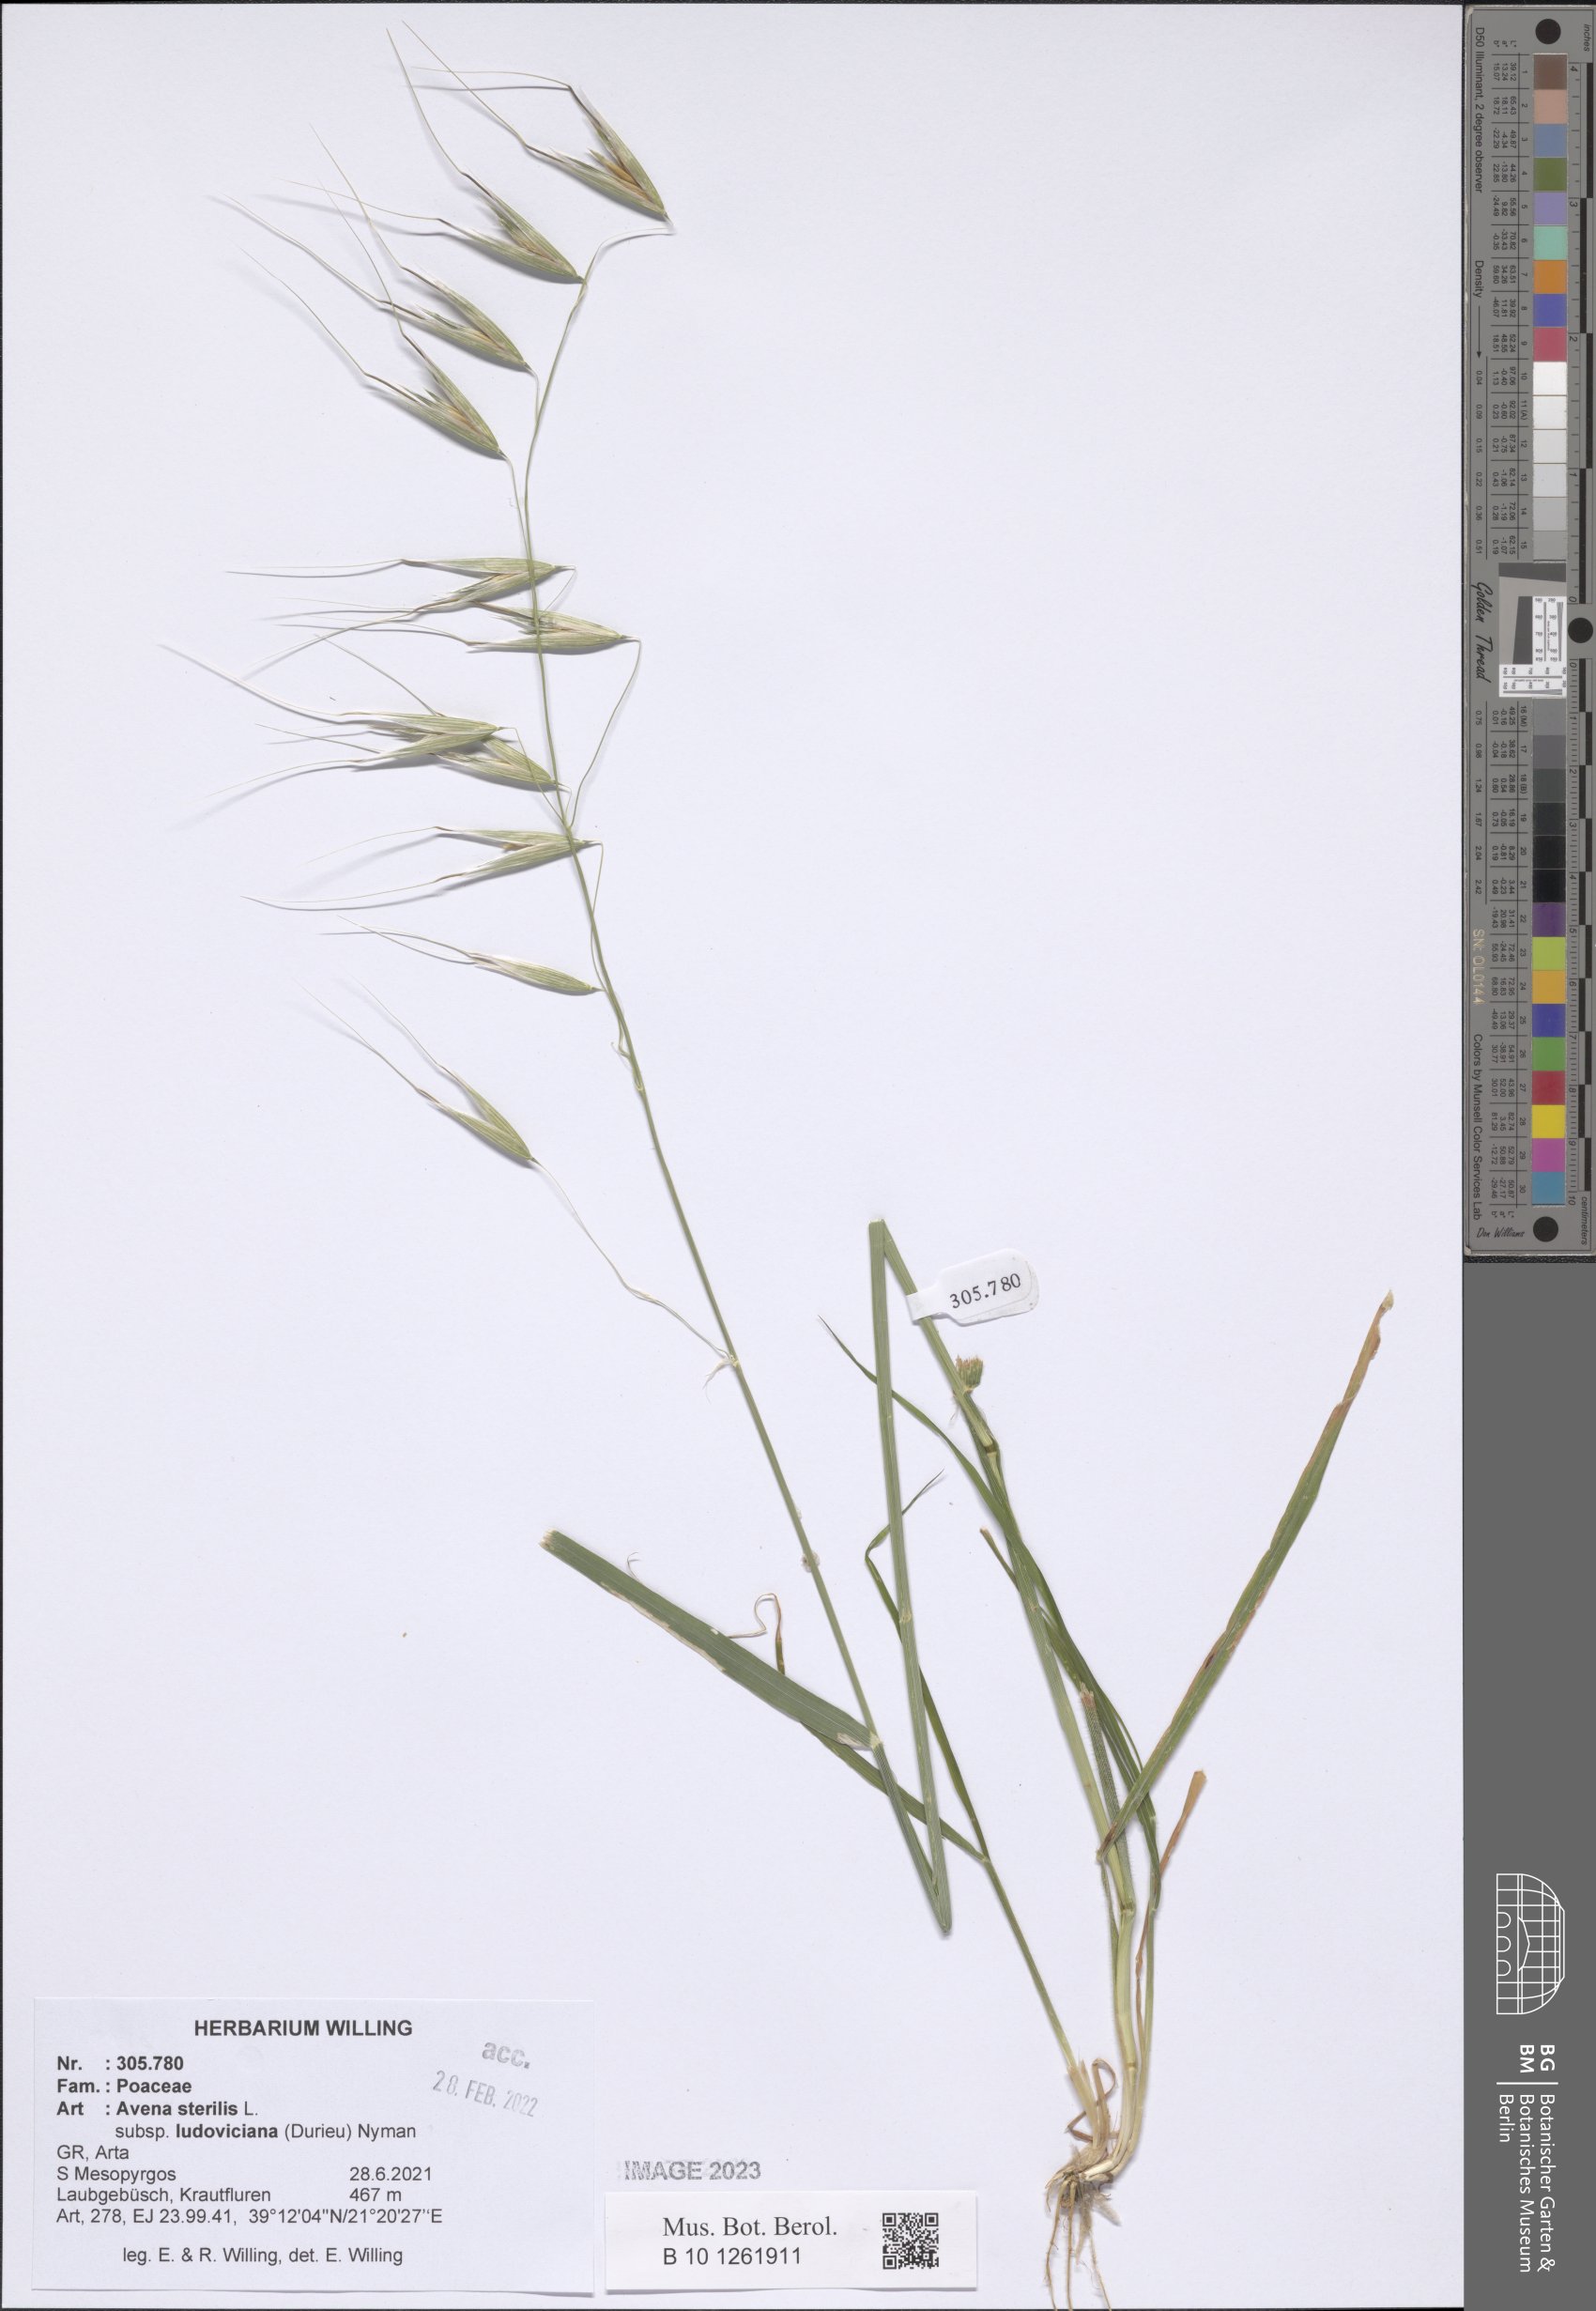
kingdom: Plantae
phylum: Tracheophyta
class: Liliopsida
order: Poales
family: Poaceae
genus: Avena
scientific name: Avena sterilis
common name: Animated oat
